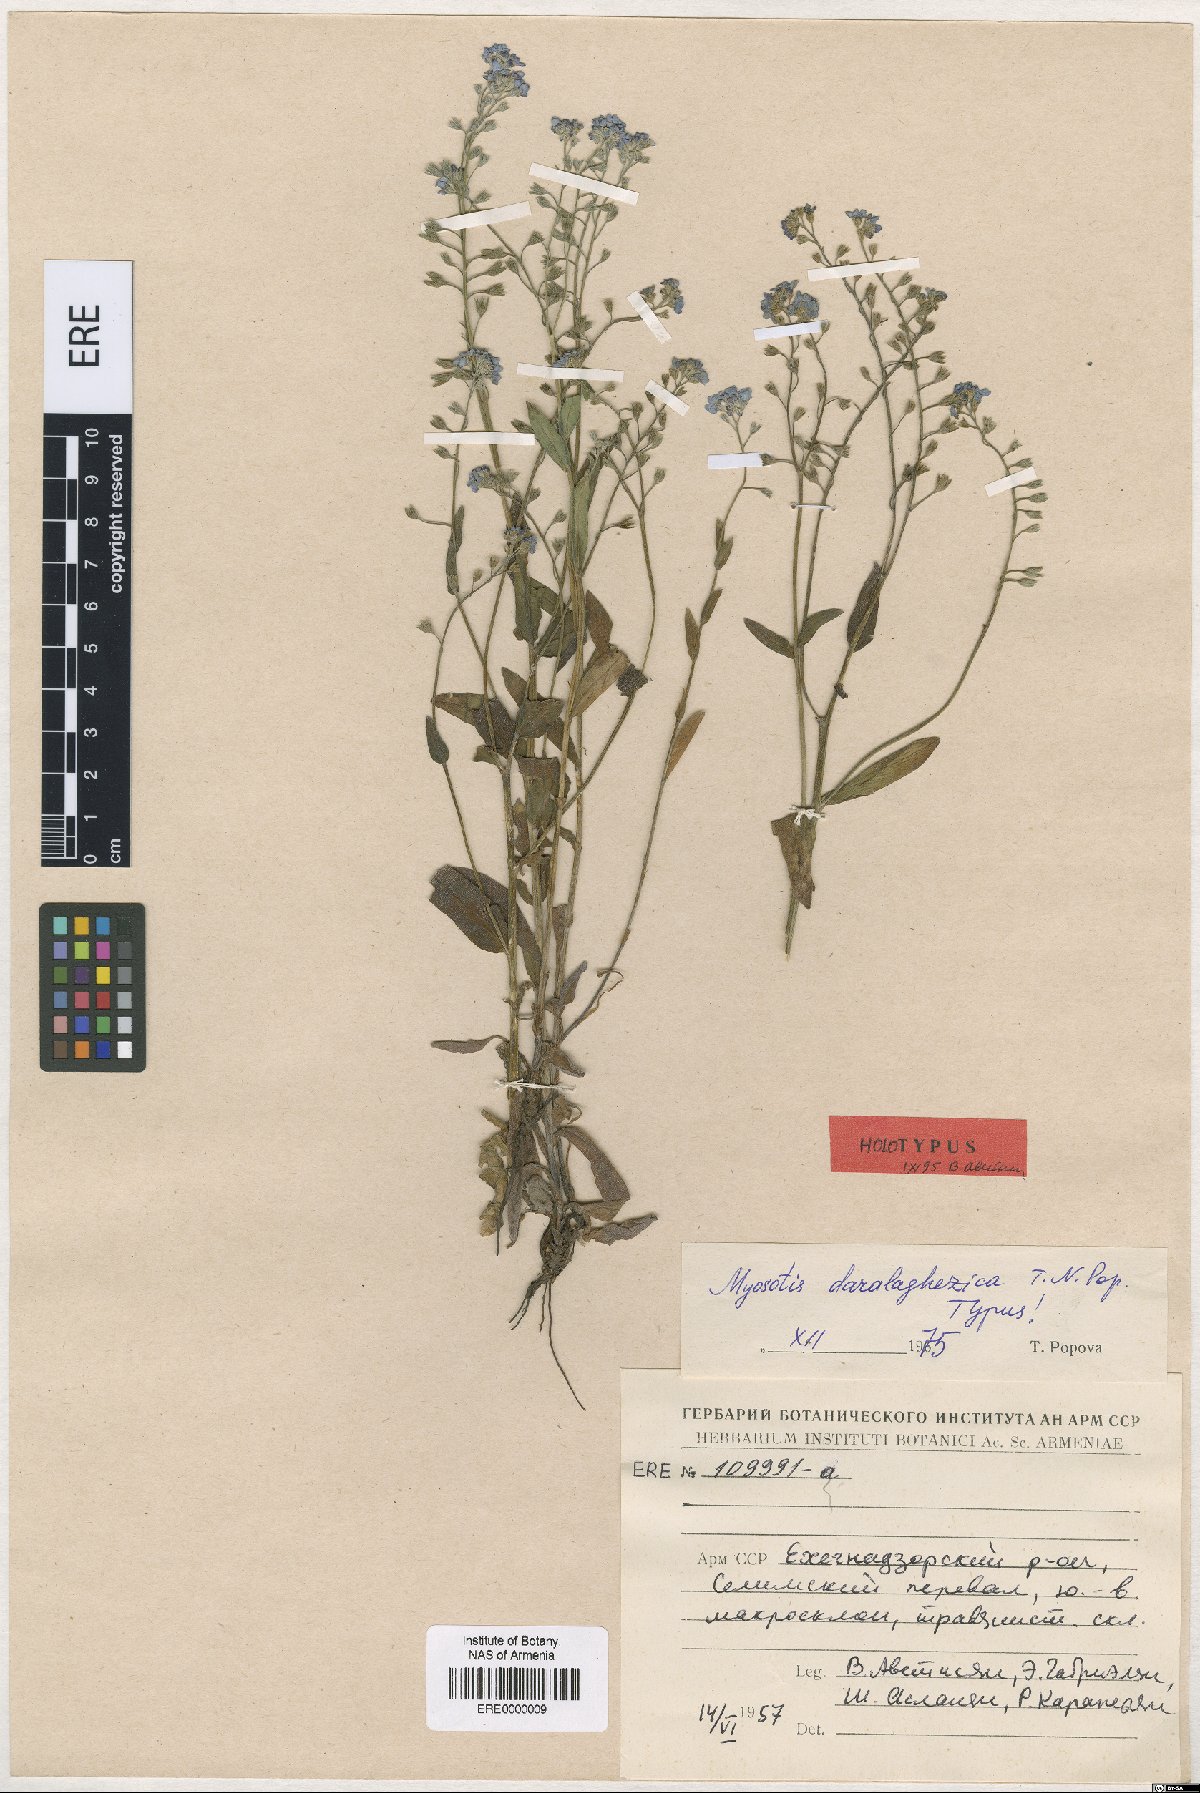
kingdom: Plantae
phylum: Tracheophyta
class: Magnoliopsida
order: Boraginales
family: Boraginaceae
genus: Myosotis
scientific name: Myosotis daralaghezica
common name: Daralagezian forget-me-not
